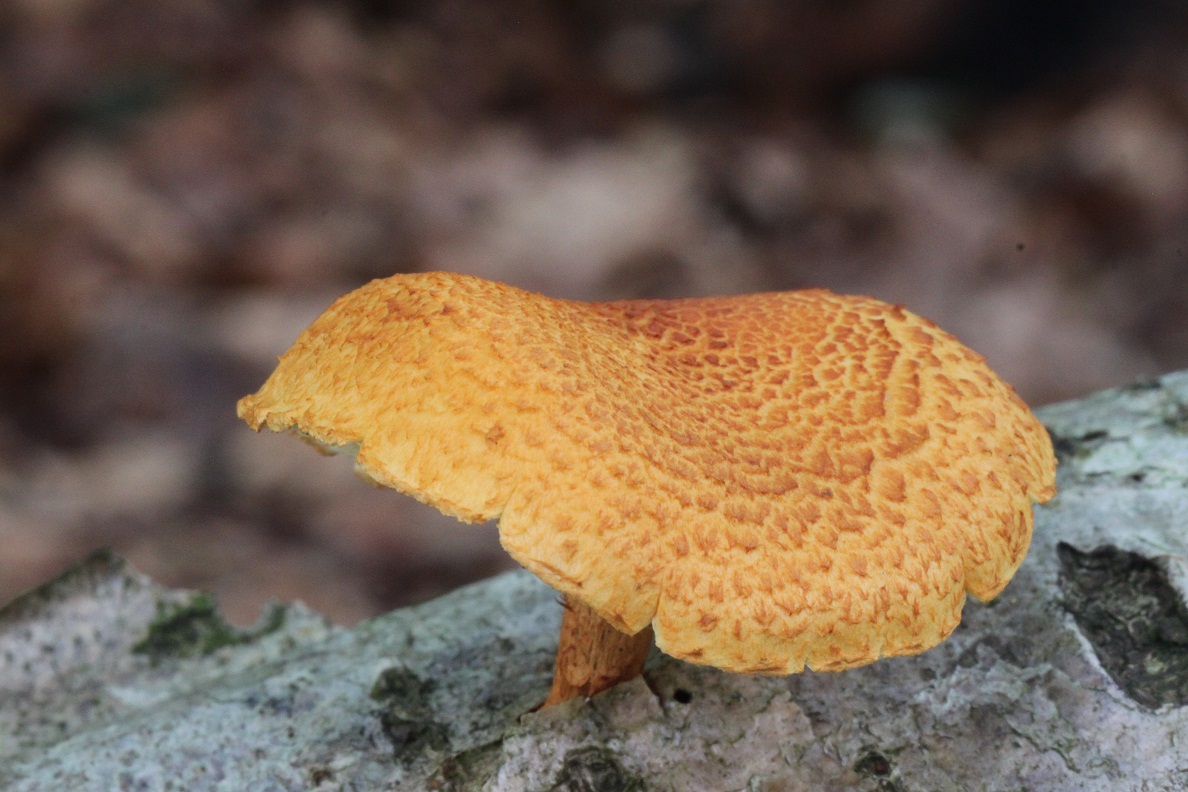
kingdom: Fungi
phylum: Basidiomycota
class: Agaricomycetes
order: Agaricales
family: Strophariaceae
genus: Pholiota
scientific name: Pholiota tuberculosa
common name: finskællet skælhat
